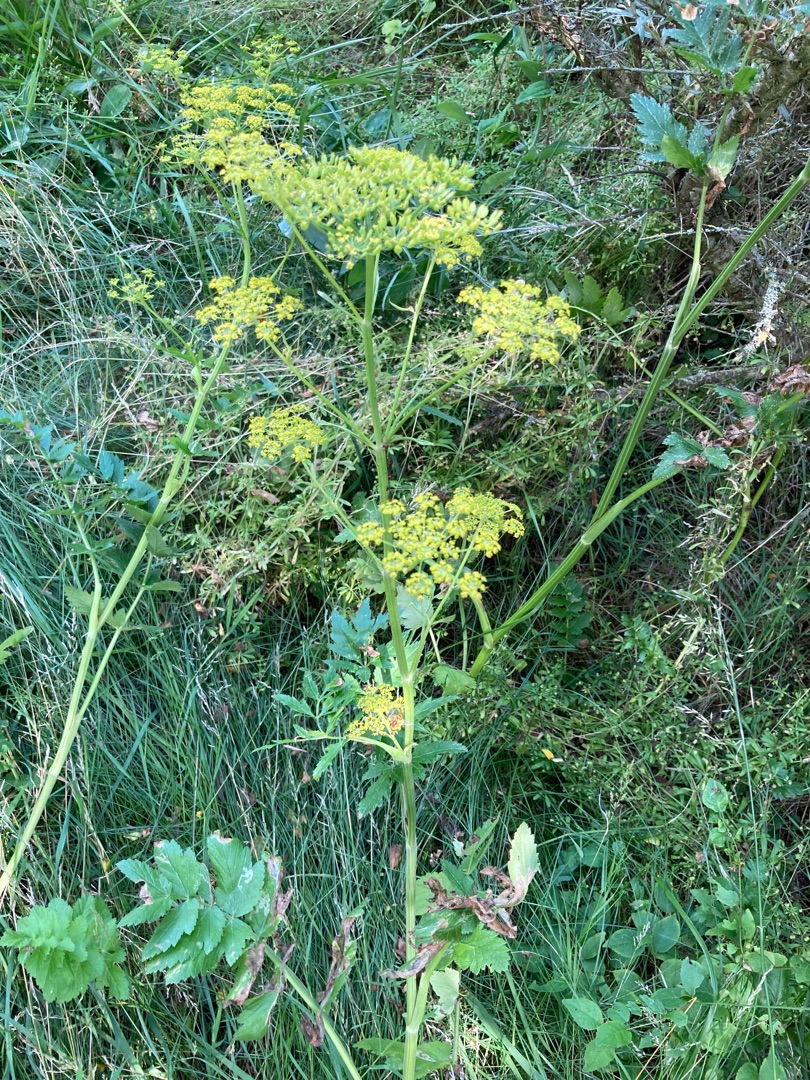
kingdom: Plantae
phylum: Tracheophyta
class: Magnoliopsida
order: Apiales
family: Apiaceae
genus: Pastinaca
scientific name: Pastinaca sativa
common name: Pastinak
